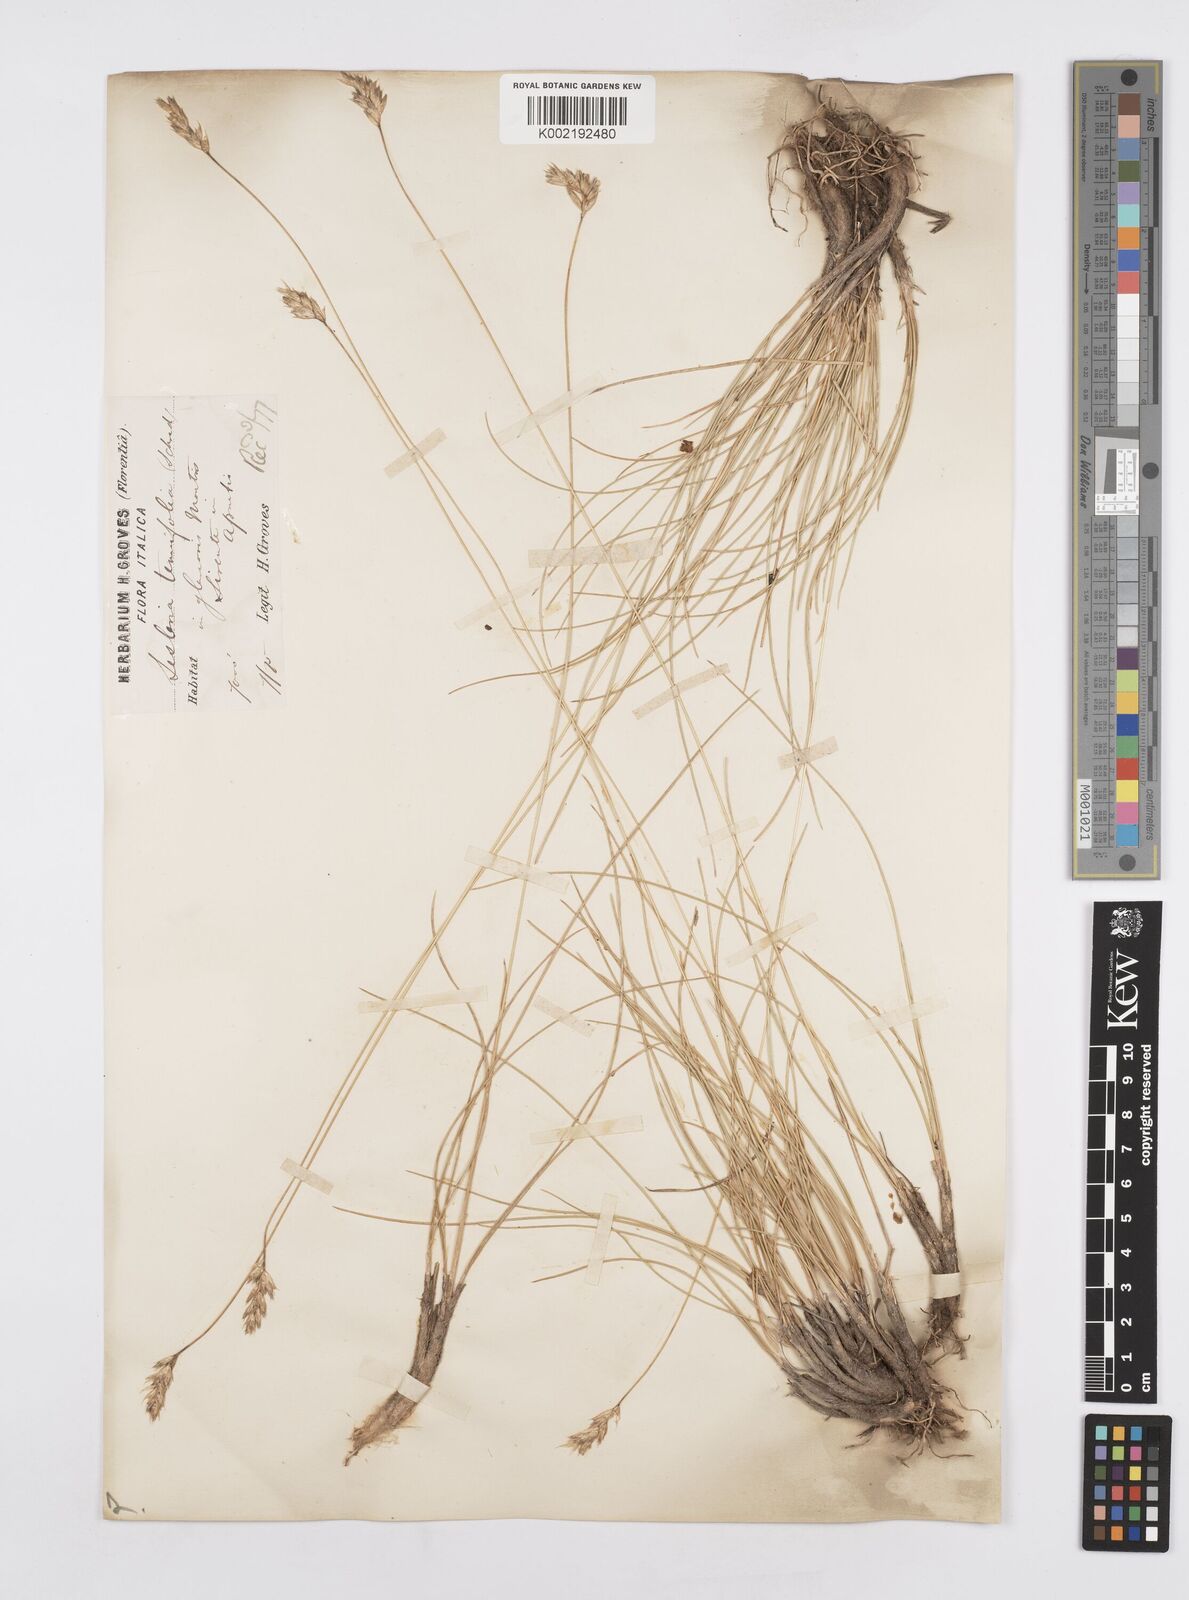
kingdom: Plantae
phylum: Tracheophyta
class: Liliopsida
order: Poales
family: Poaceae
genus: Sesleria
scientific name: Sesleria juncifolia
